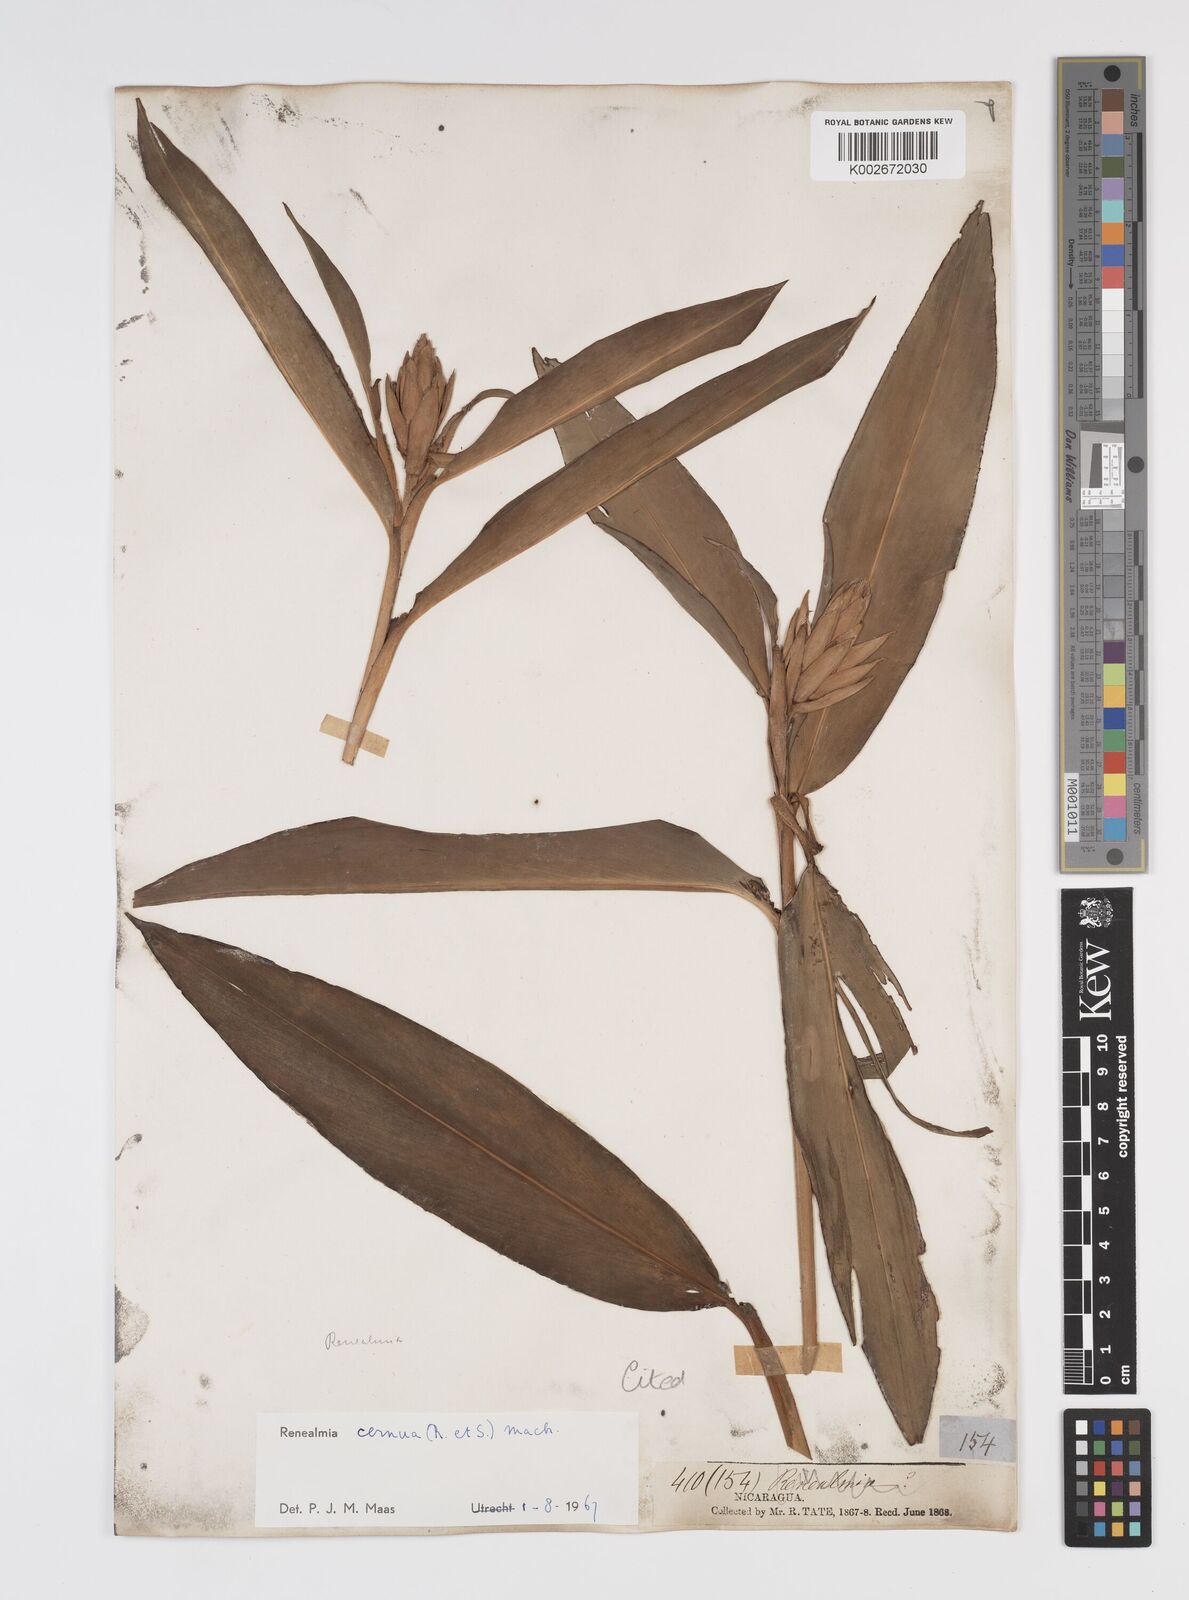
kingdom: Plantae
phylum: Tracheophyta
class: Liliopsida
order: Zingiberales
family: Zingiberaceae
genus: Renealmia
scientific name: Renealmia cernua
